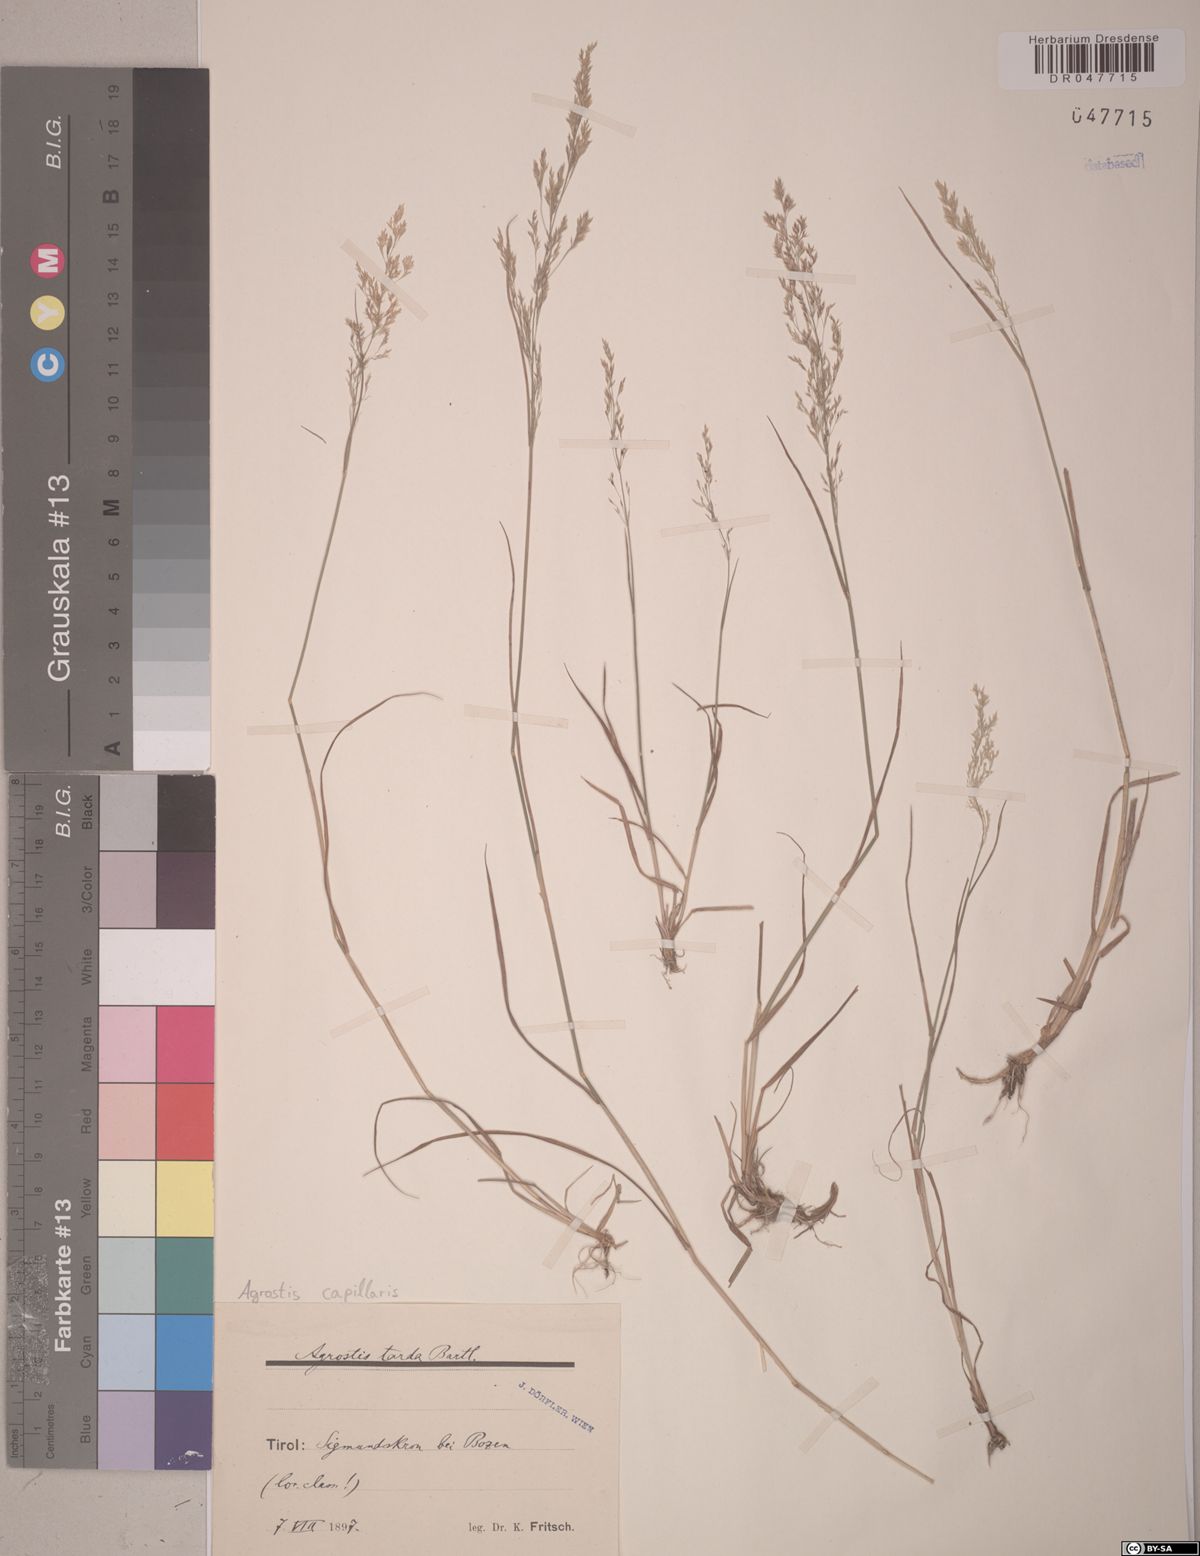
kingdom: Plantae
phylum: Tracheophyta
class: Liliopsida
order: Poales
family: Poaceae
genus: Agrostis
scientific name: Agrostis capillaris
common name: Colonial bentgrass
